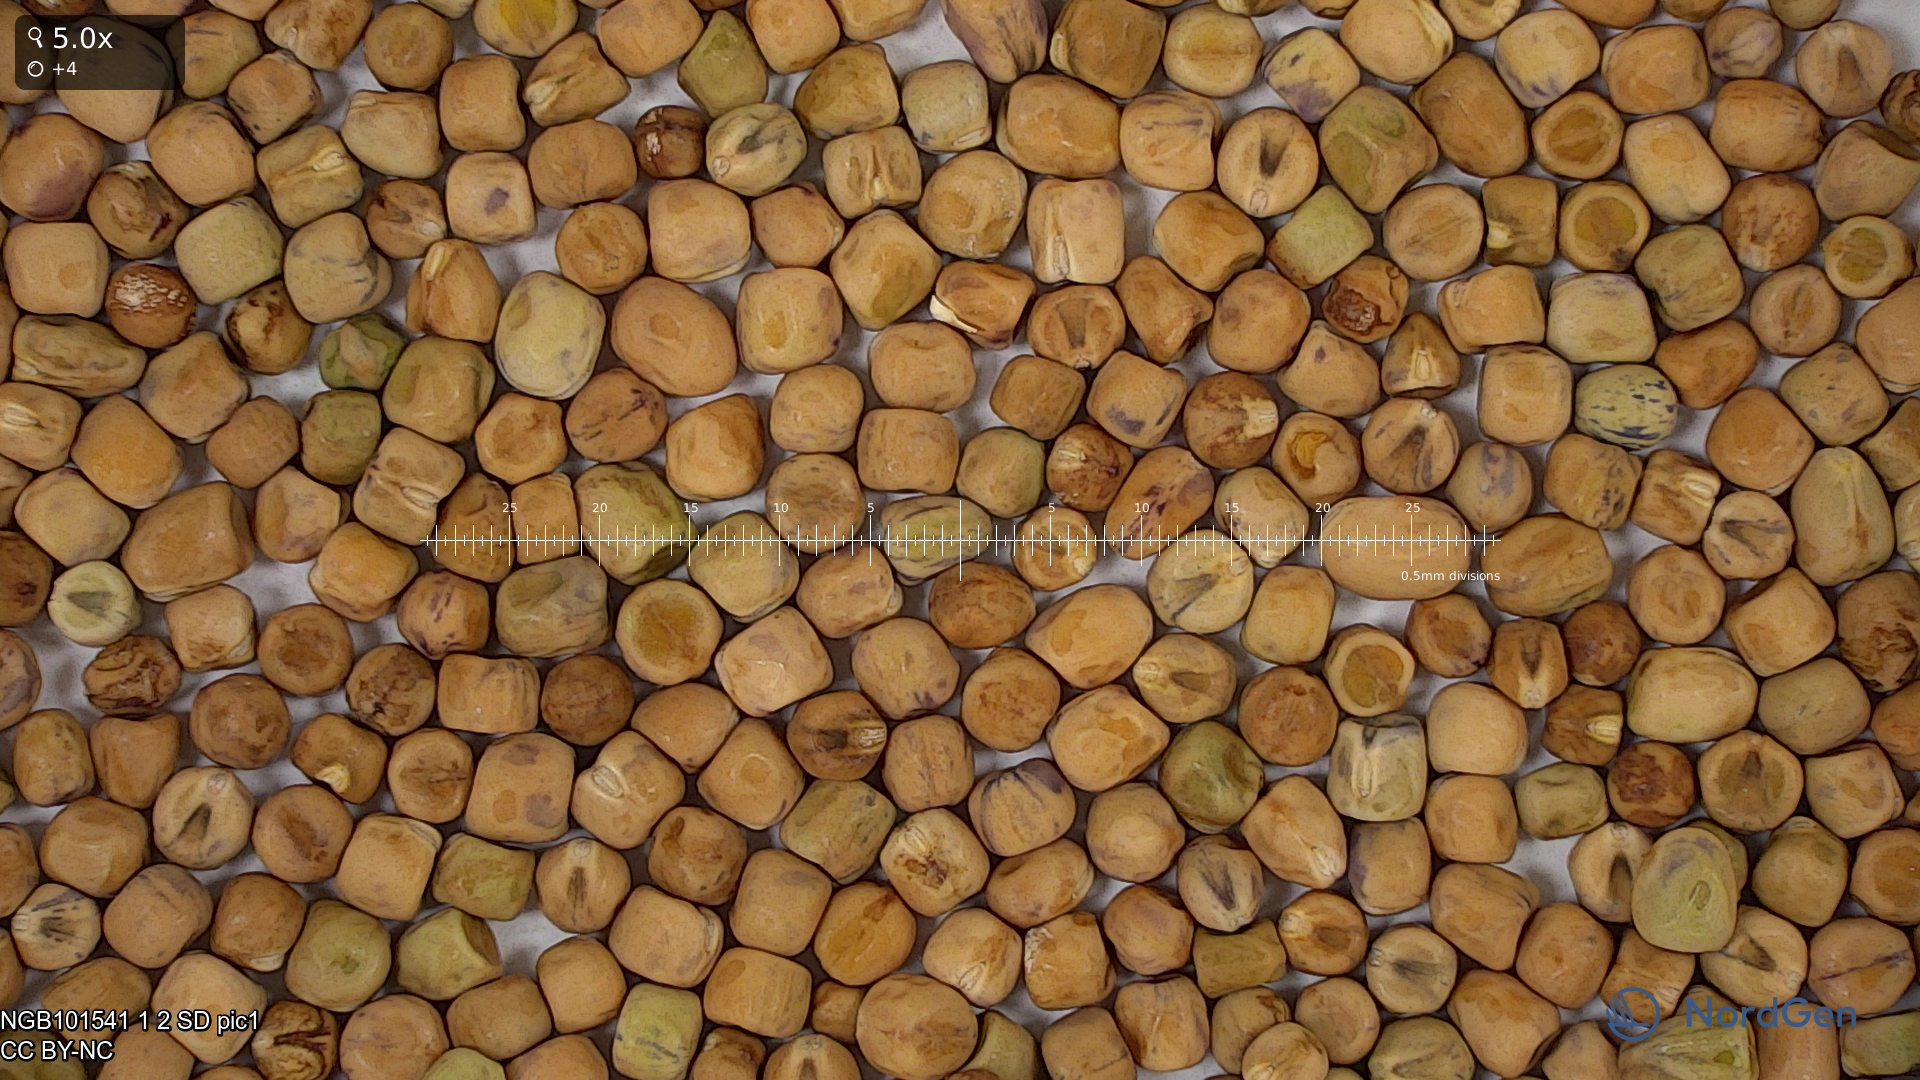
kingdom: Plantae
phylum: Tracheophyta
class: Magnoliopsida
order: Fabales
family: Fabaceae
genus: Lathyrus
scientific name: Lathyrus oleraceus
